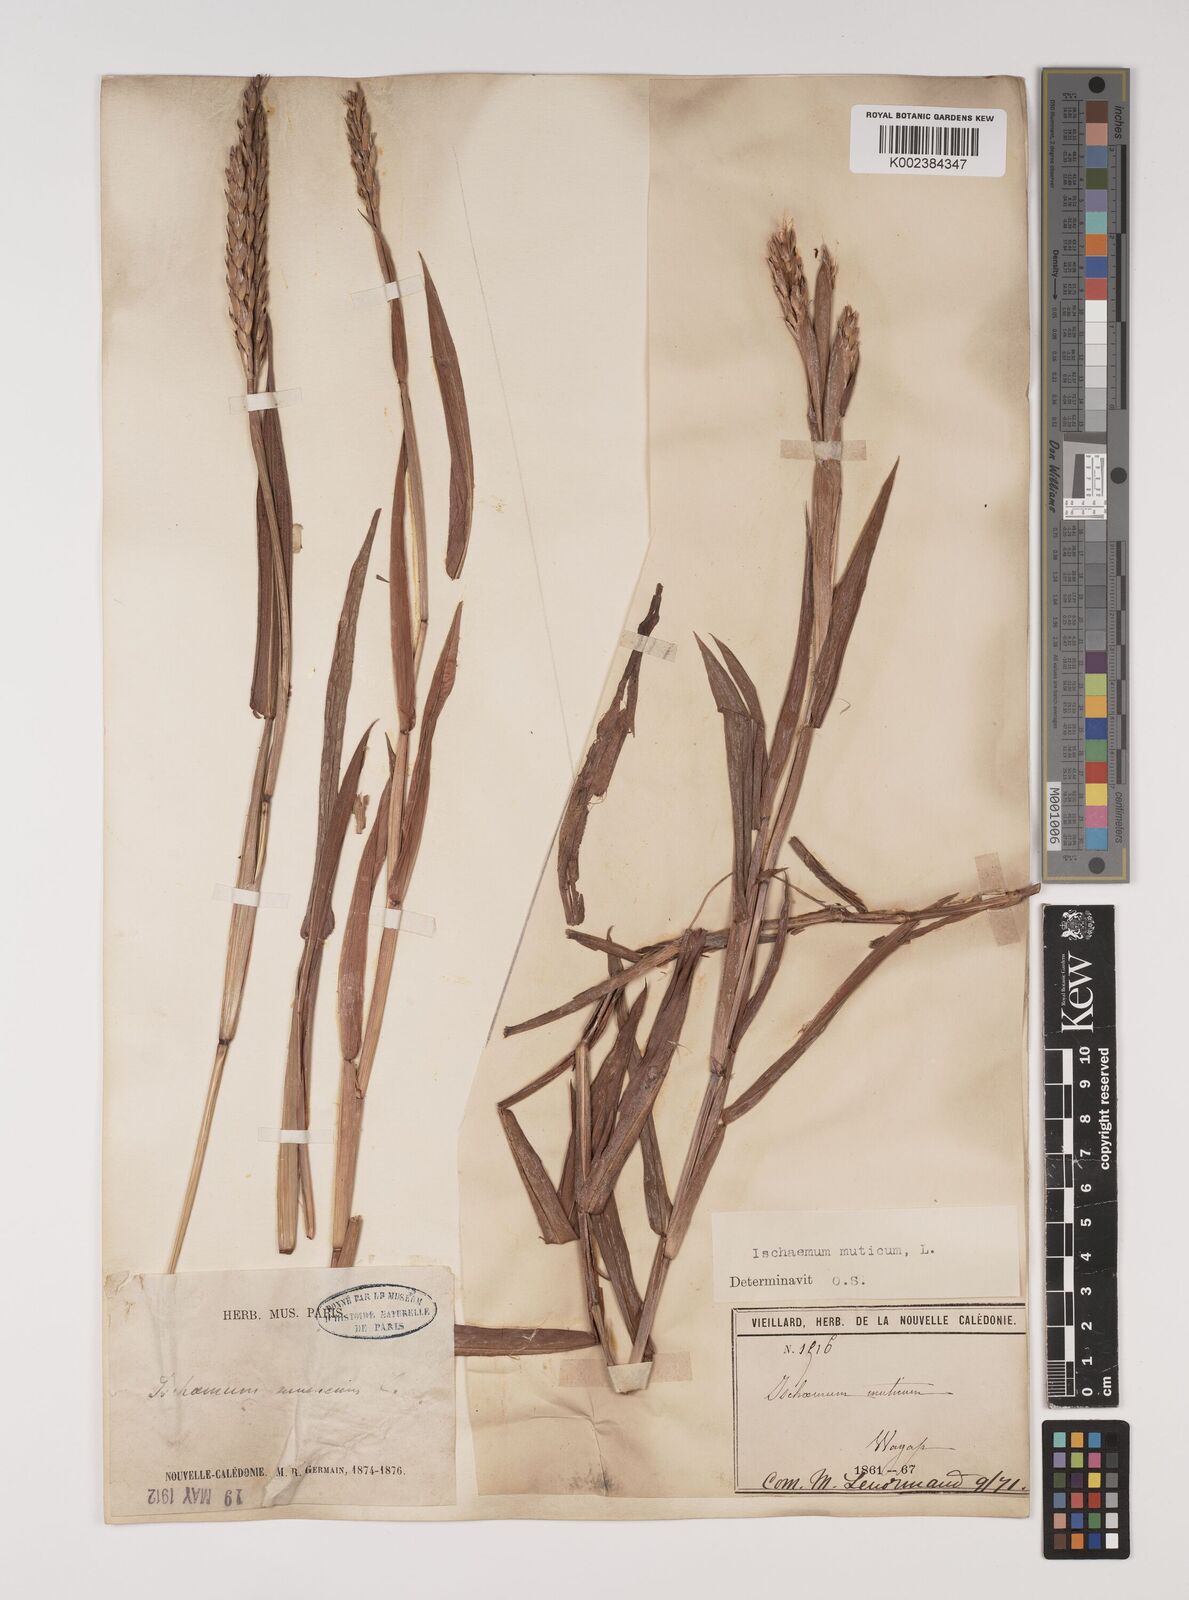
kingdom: Plantae
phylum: Tracheophyta
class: Liliopsida
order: Poales
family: Poaceae
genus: Ischaemum
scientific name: Ischaemum muticum
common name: Drought grass
